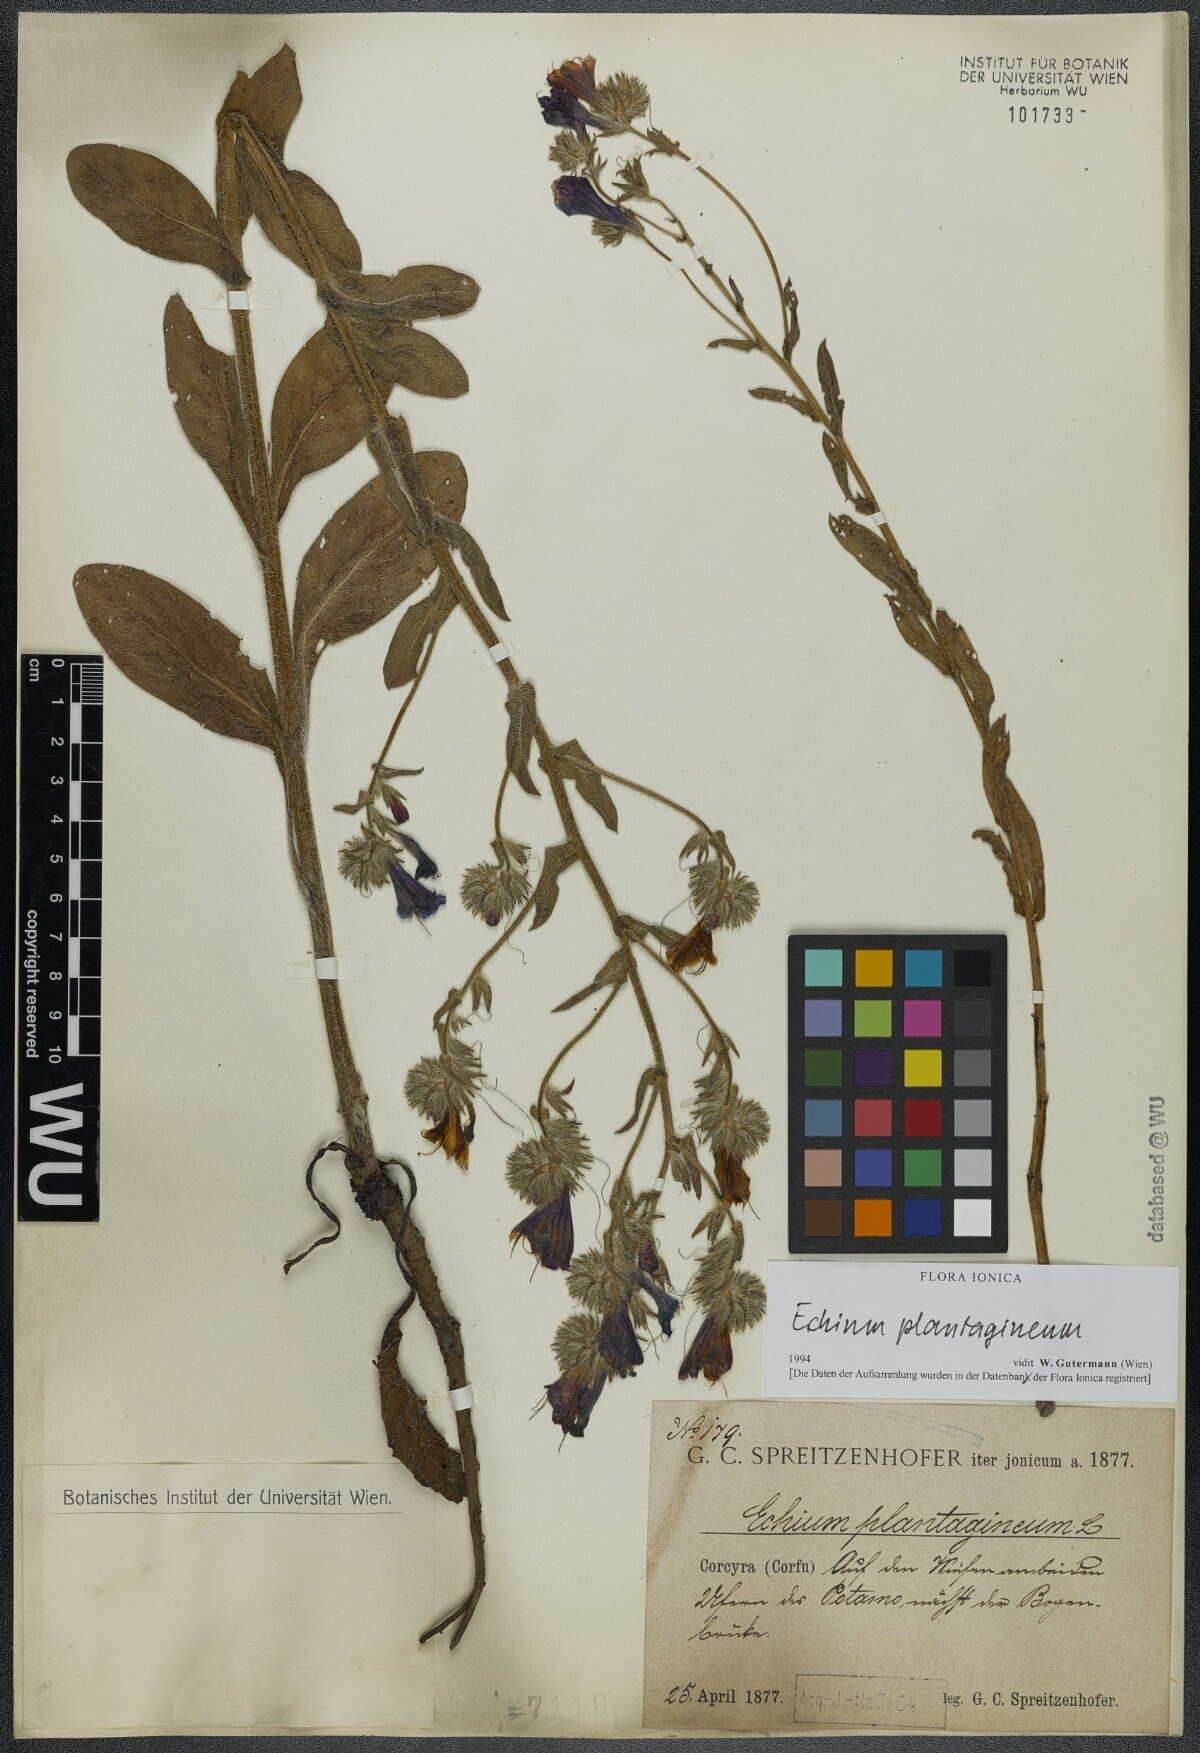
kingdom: Plantae
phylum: Tracheophyta
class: Magnoliopsida
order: Boraginales
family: Boraginaceae
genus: Echium
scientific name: Echium plantagineum
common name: Purple viper's-bugloss
